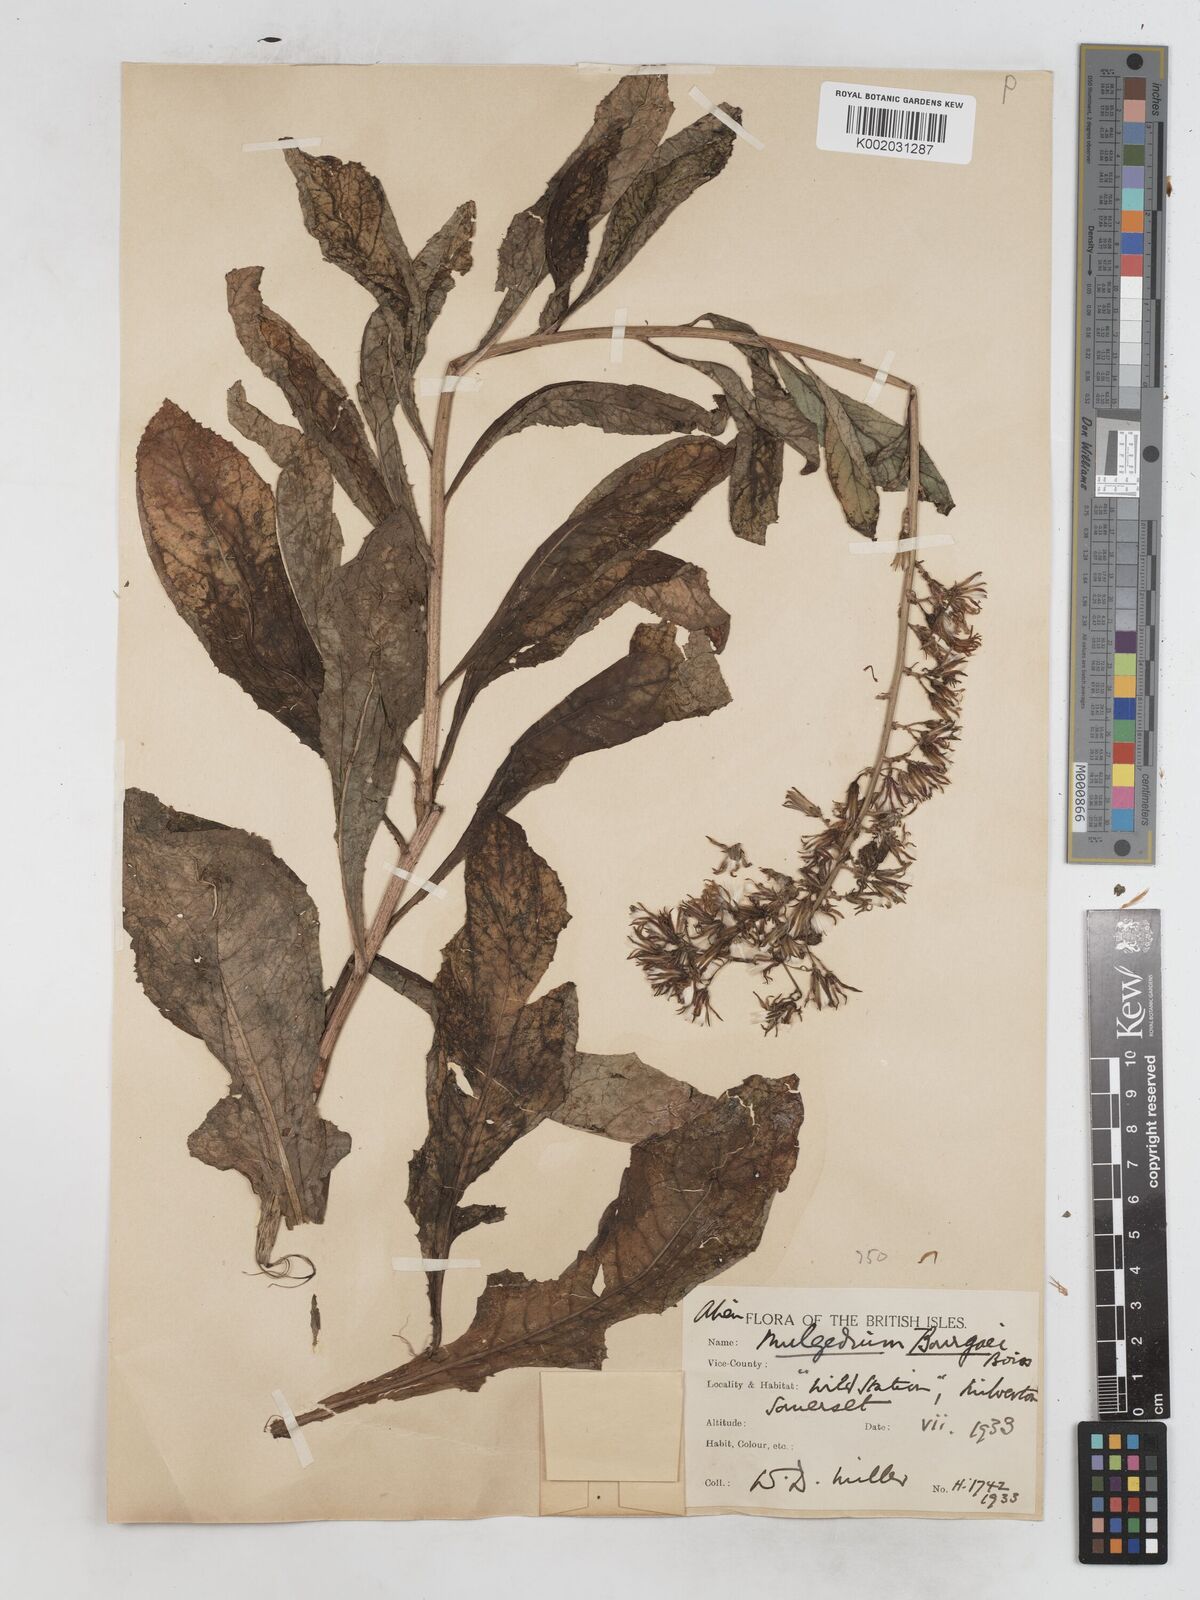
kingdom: Plantae
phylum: Tracheophyta
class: Magnoliopsida
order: Asterales
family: Asteraceae
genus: Lactuca
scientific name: Lactuca bourgaei
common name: Pontic blue-sow-thistle
